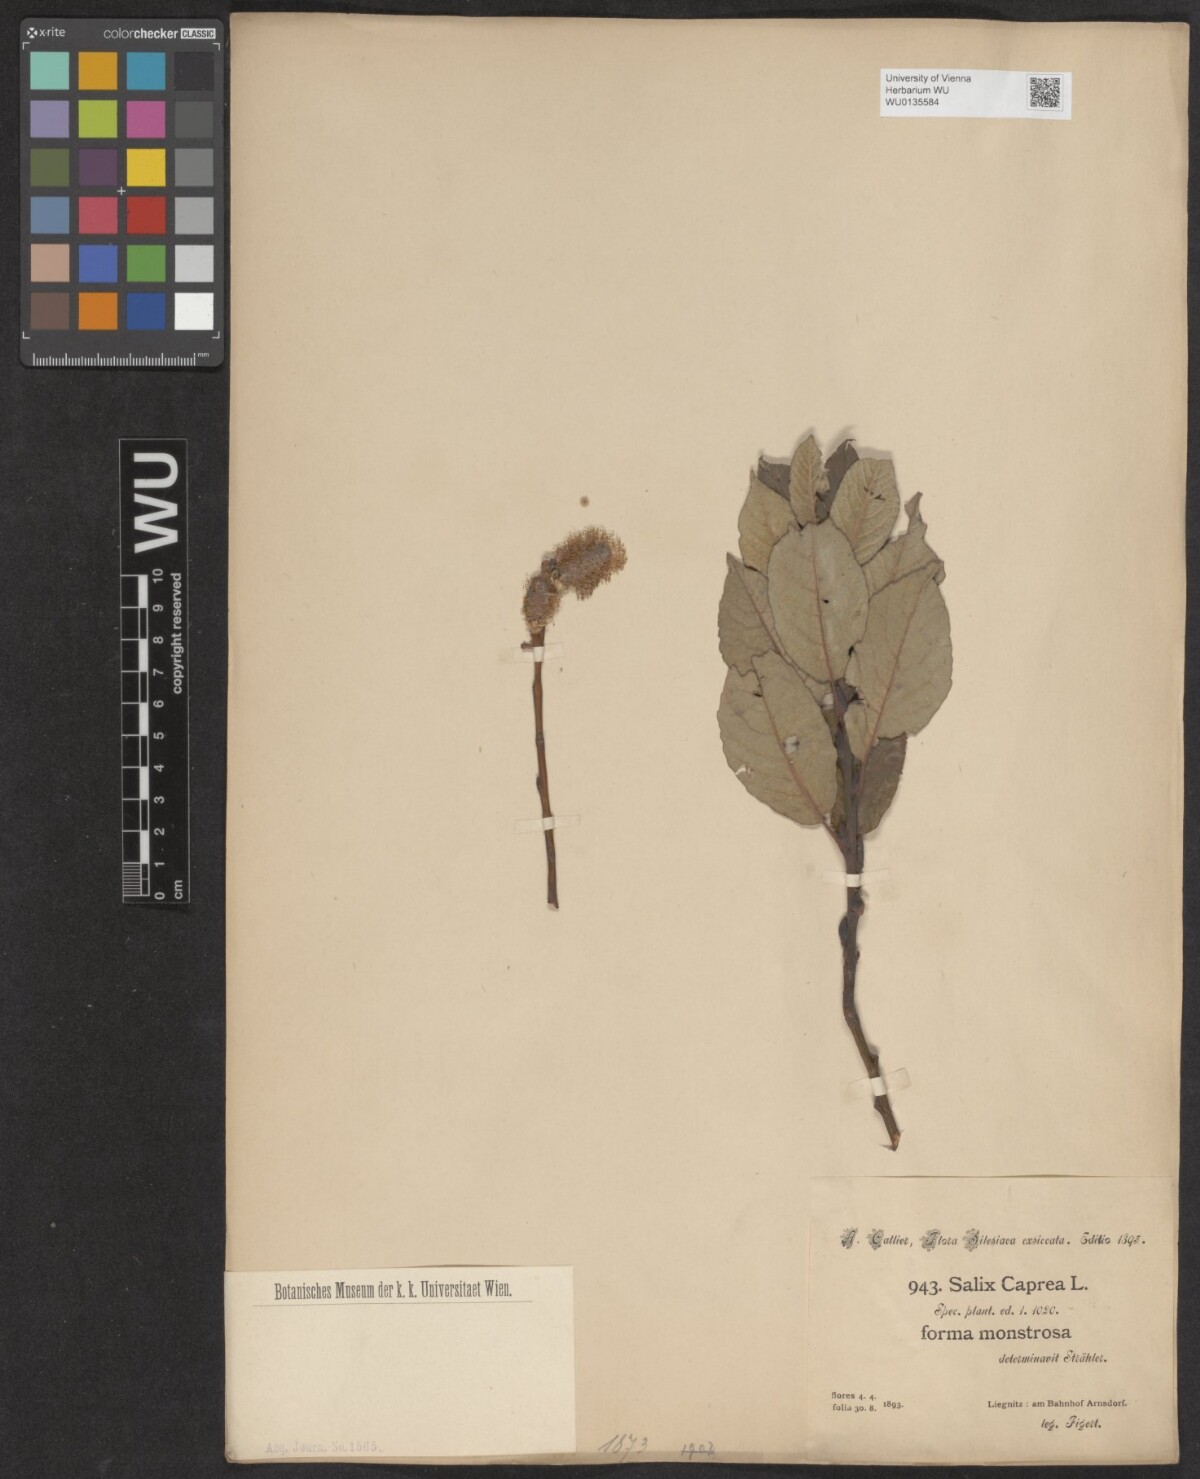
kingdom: Plantae
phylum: Tracheophyta
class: Magnoliopsida
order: Malpighiales
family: Salicaceae
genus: Salix
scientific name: Salix caprea
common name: Goat willow
